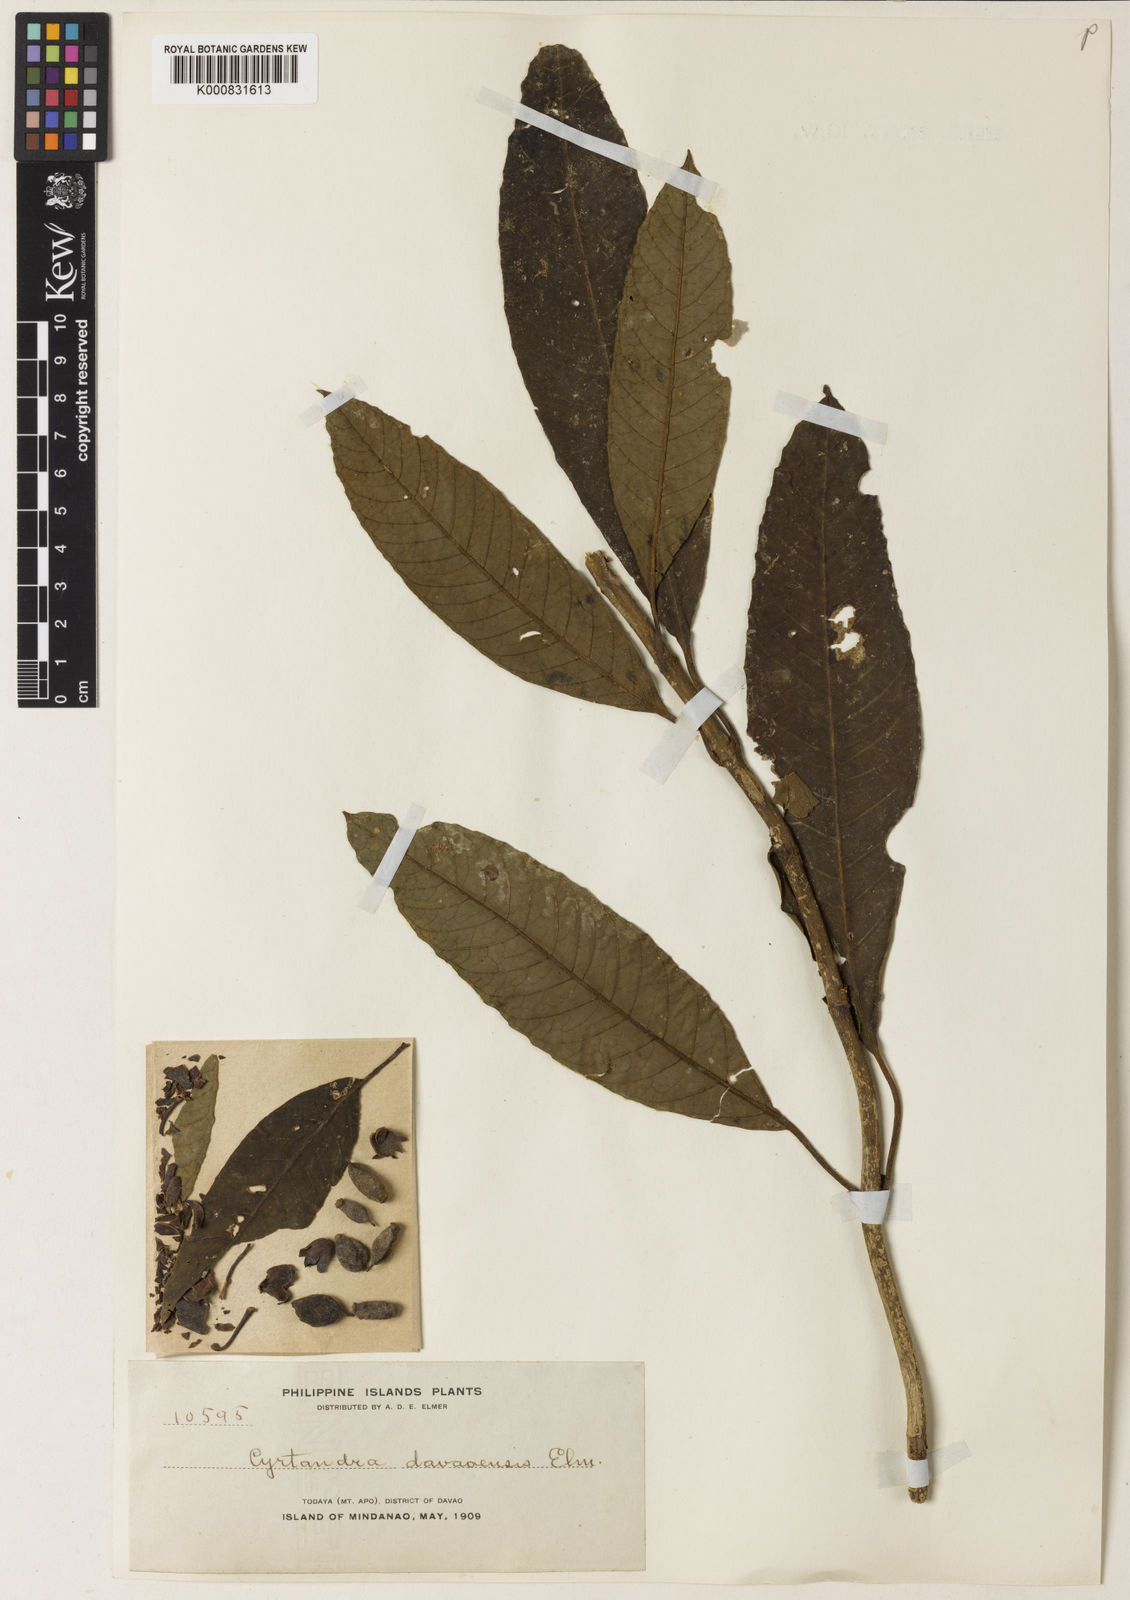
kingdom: Plantae
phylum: Tracheophyta
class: Magnoliopsida
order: Lamiales
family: Gesneriaceae
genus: Cyrtandra
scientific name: Cyrtandra davaoensis
